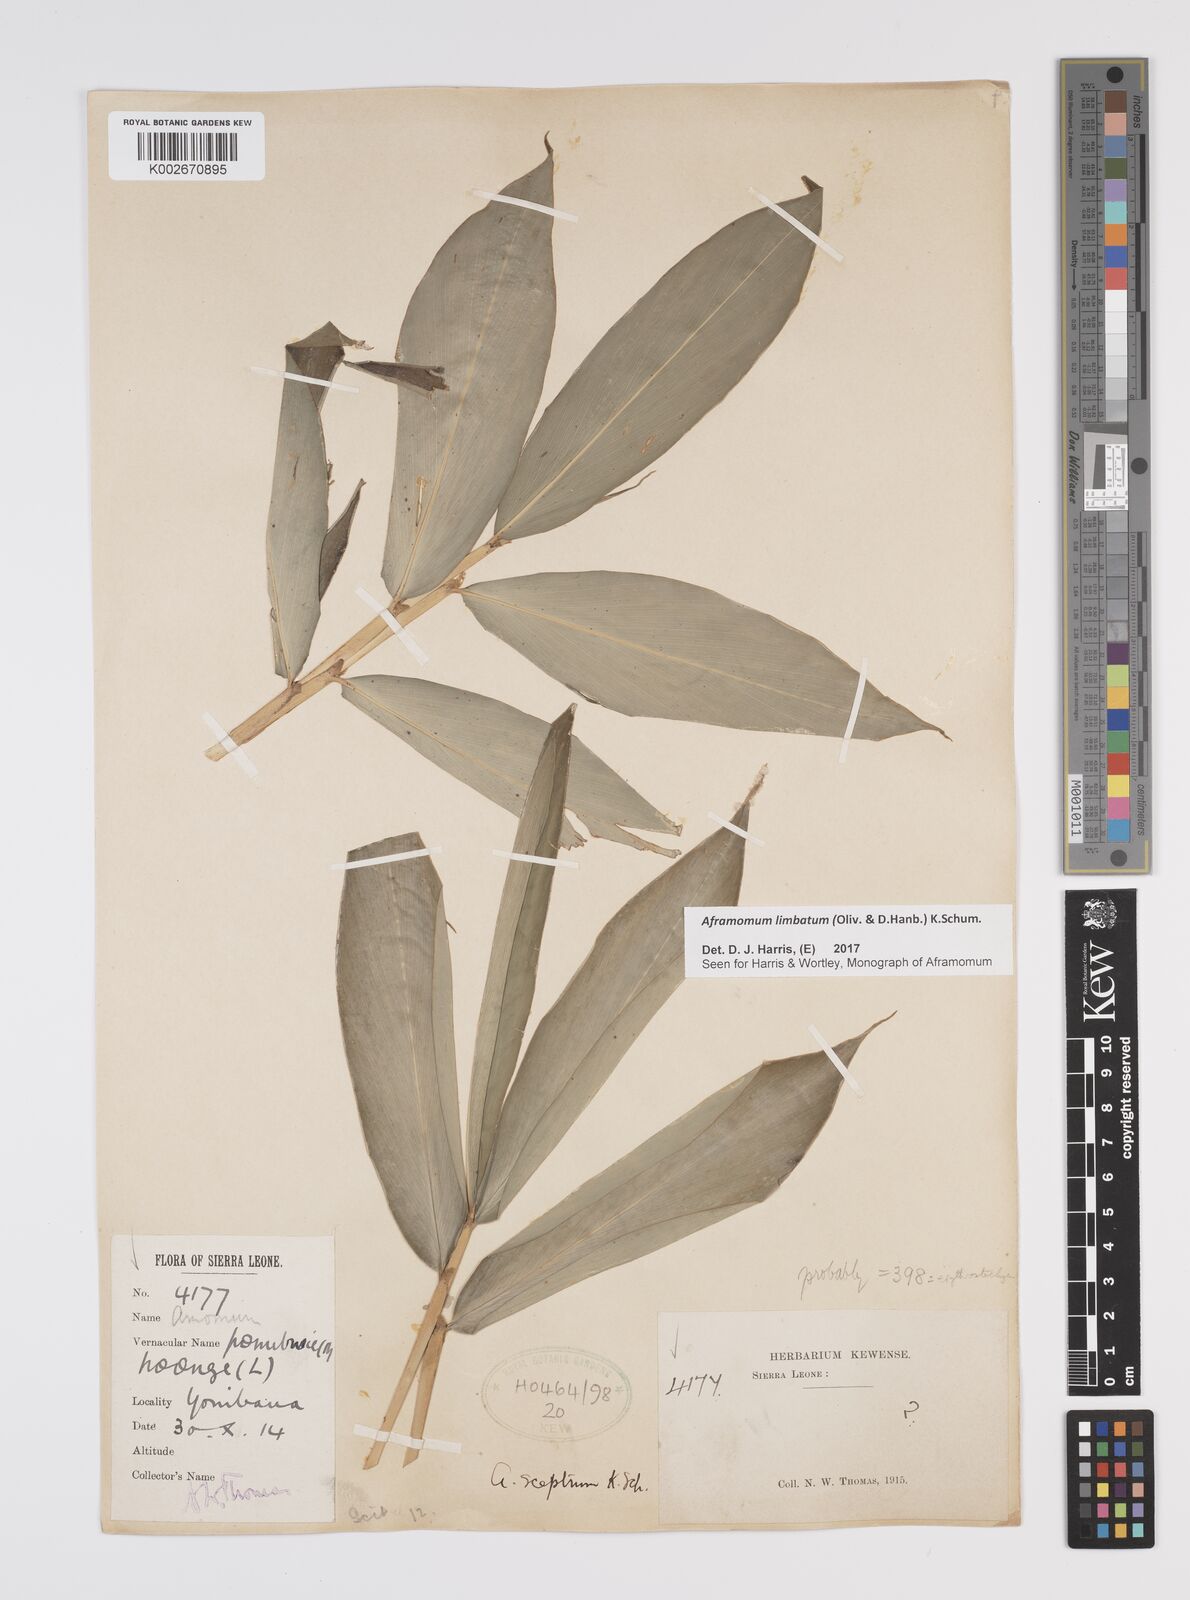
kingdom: Plantae
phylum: Tracheophyta
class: Liliopsida
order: Zingiberales
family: Zingiberaceae
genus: Aframomum
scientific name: Aframomum limbatum
